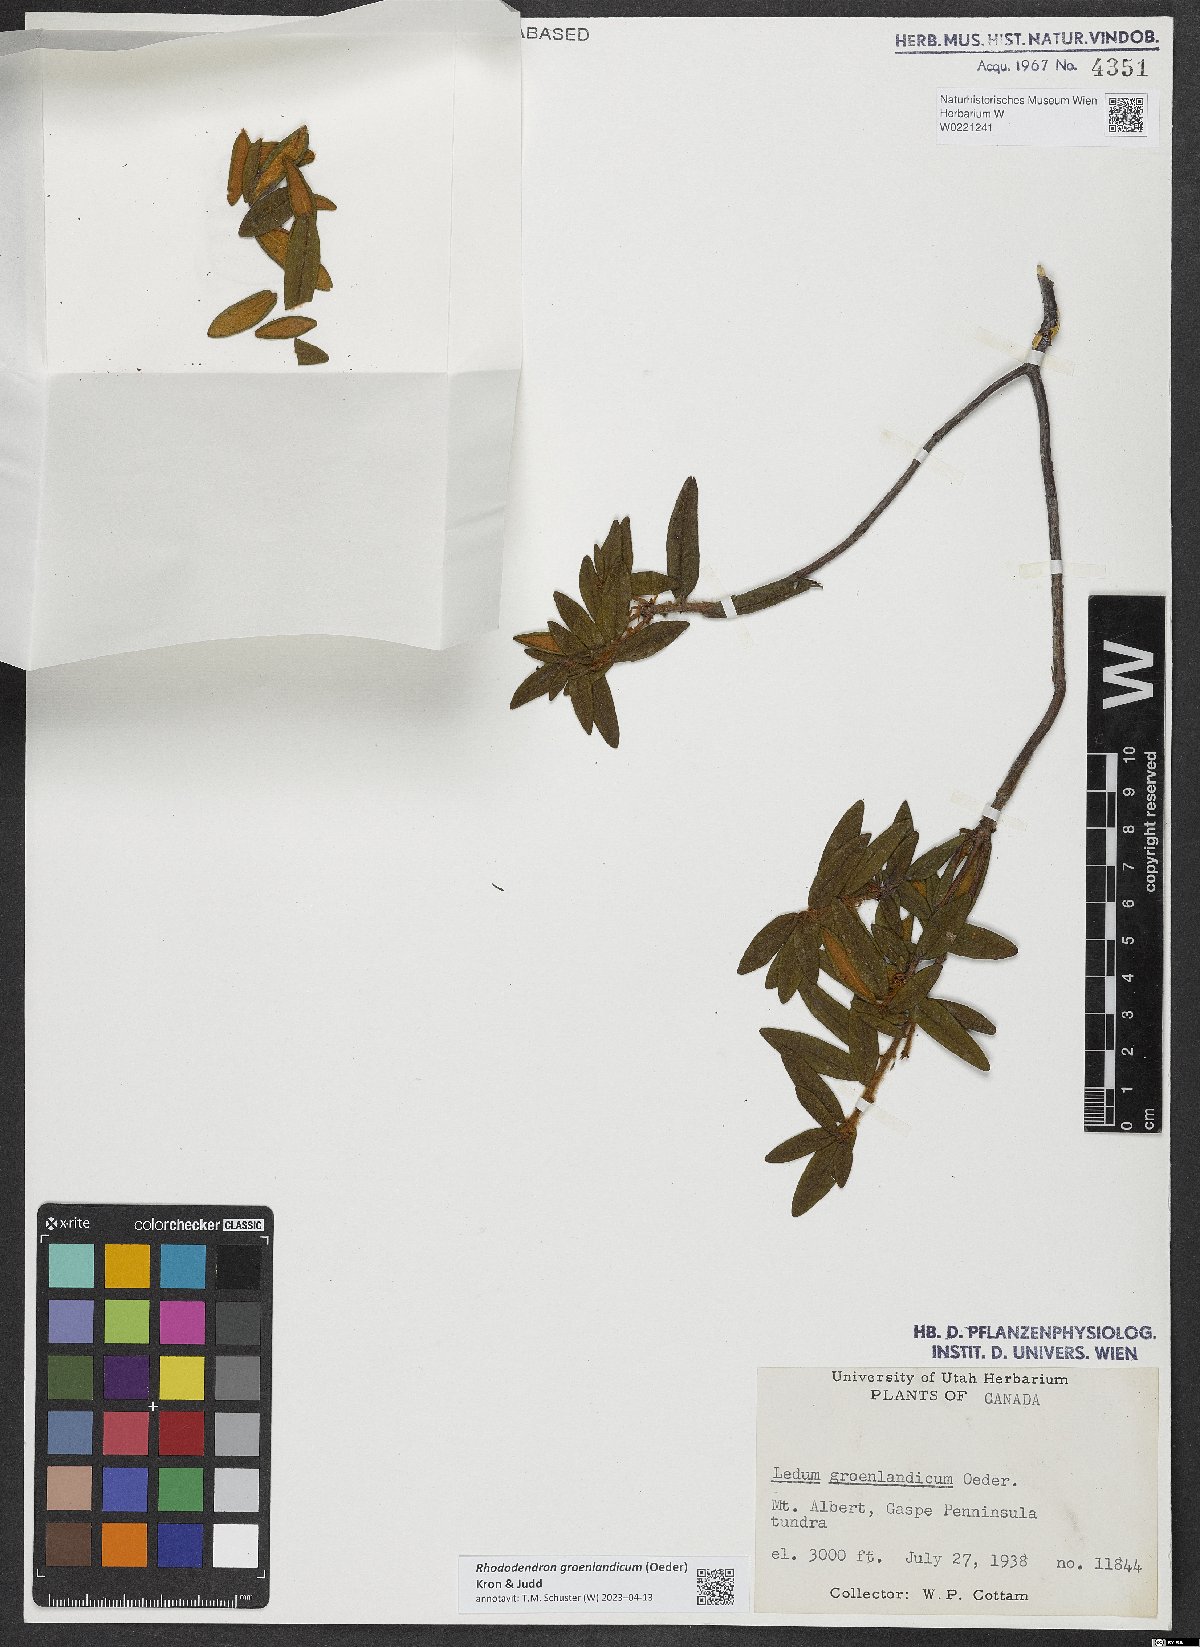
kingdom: Plantae
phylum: Tracheophyta
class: Magnoliopsida
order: Ericales
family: Ericaceae
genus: Rhododendron
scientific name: Rhododendron groenlandicum
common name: Bog labrador tea
